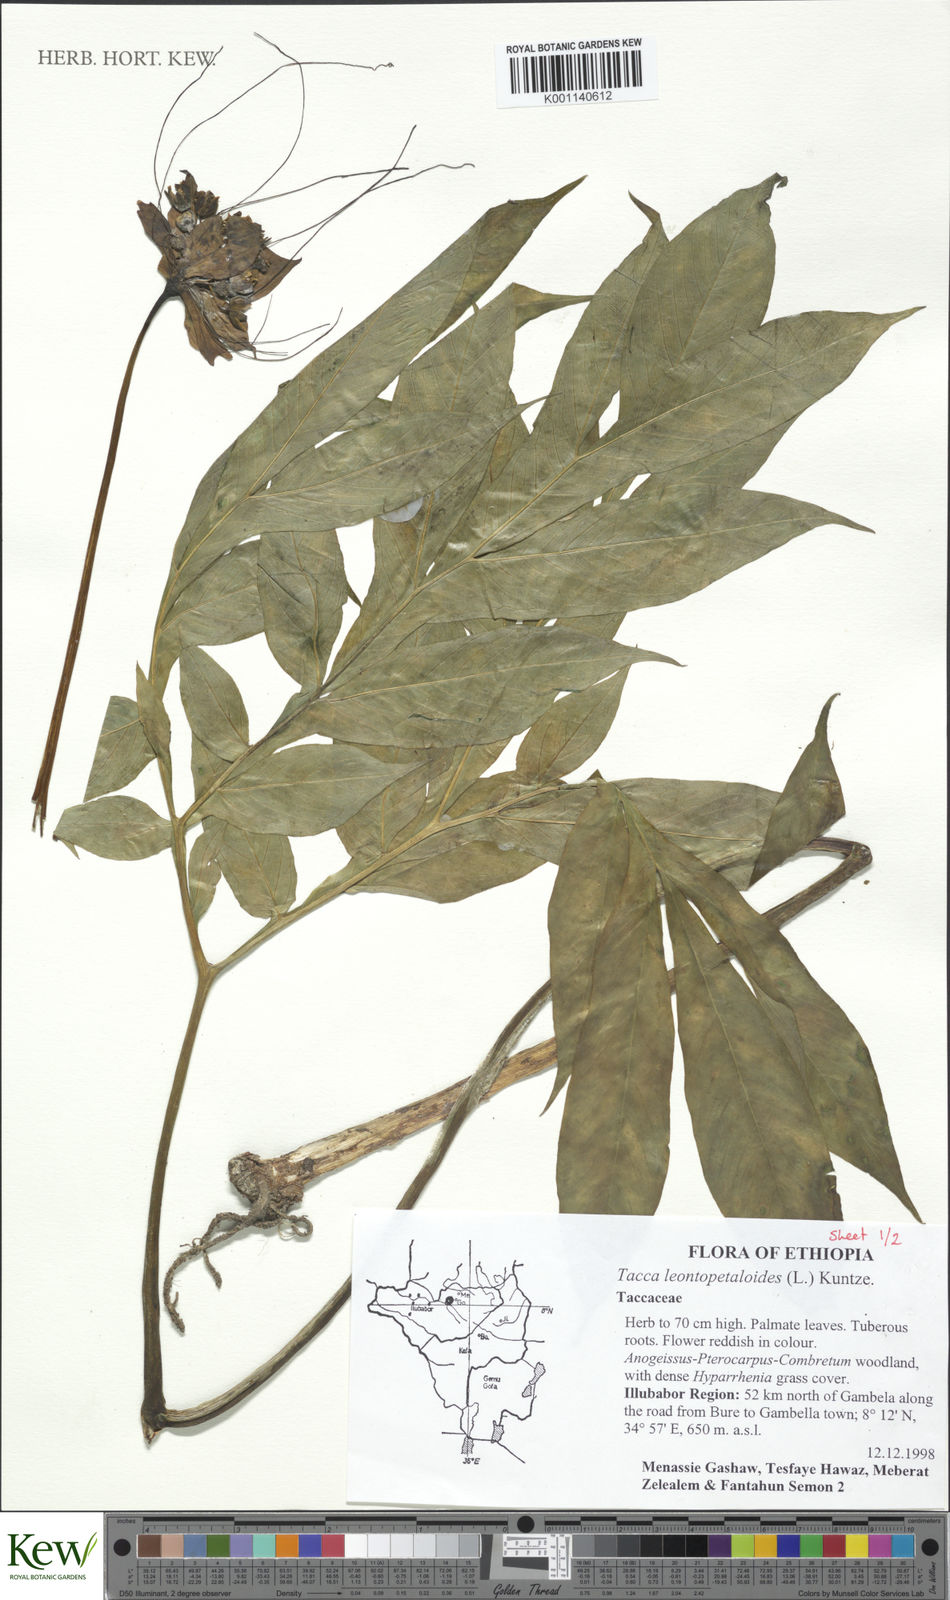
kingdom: Plantae
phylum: Tracheophyta
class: Liliopsida
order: Dioscoreales
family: Dioscoreaceae
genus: Tacca
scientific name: Tacca leontopetaloides
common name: Arrowroot
